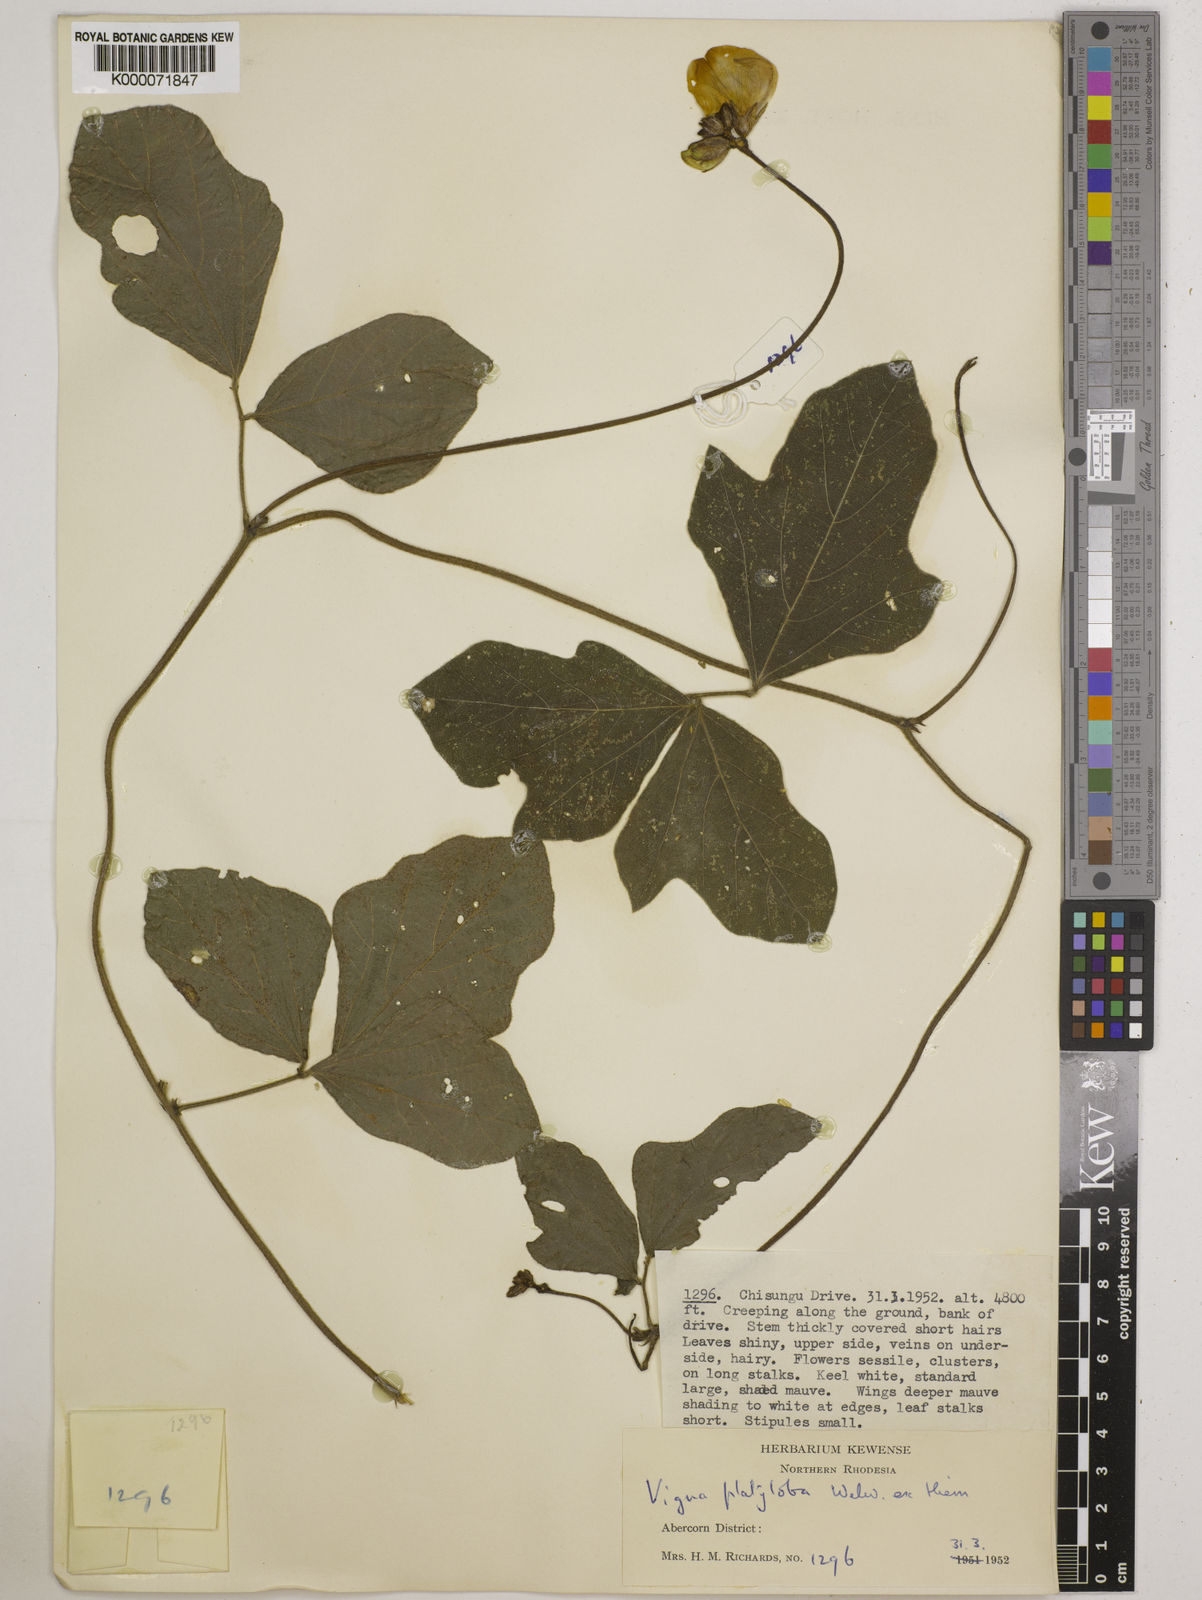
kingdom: Plantae
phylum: Tracheophyta
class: Magnoliopsida
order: Fabales
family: Fabaceae
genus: Vigna
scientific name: Vigna platyloba
